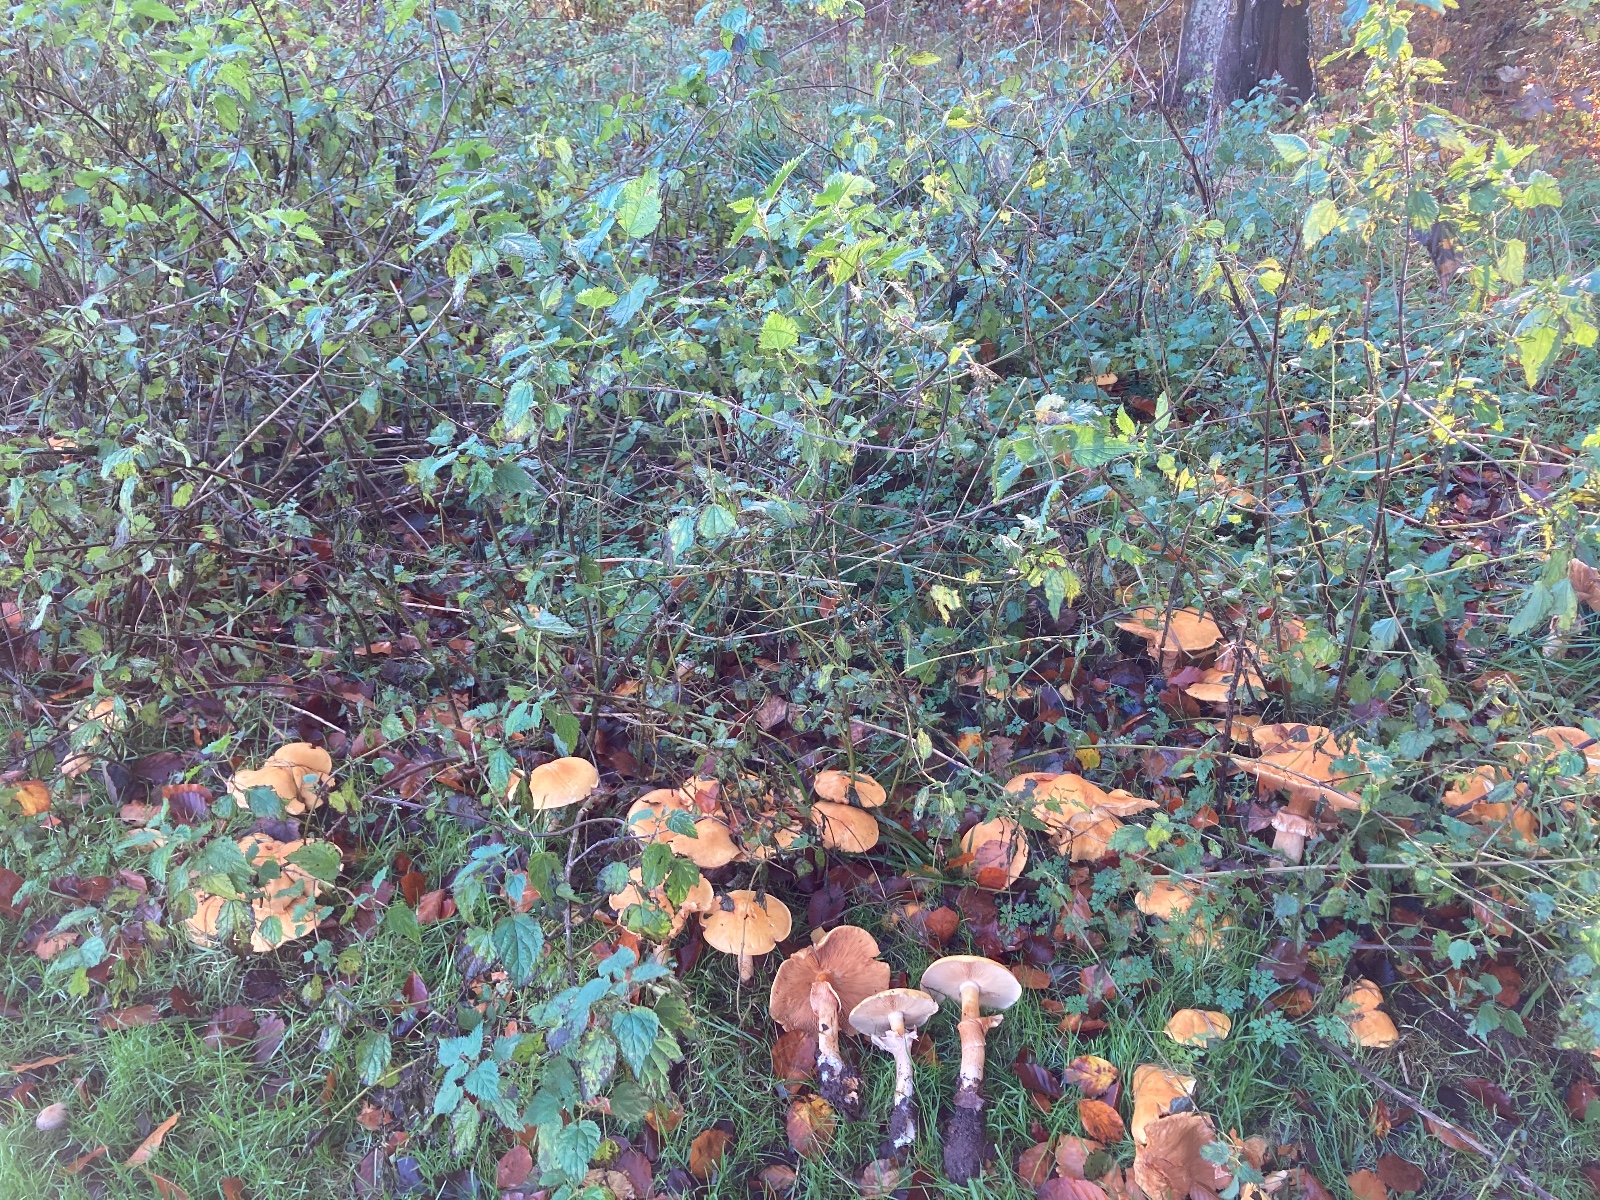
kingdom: Fungi
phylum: Basidiomycota
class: Agaricomycetes
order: Agaricales
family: Tricholomataceae
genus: Phaeolepiota
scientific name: Phaeolepiota aurea
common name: gyldenhat
